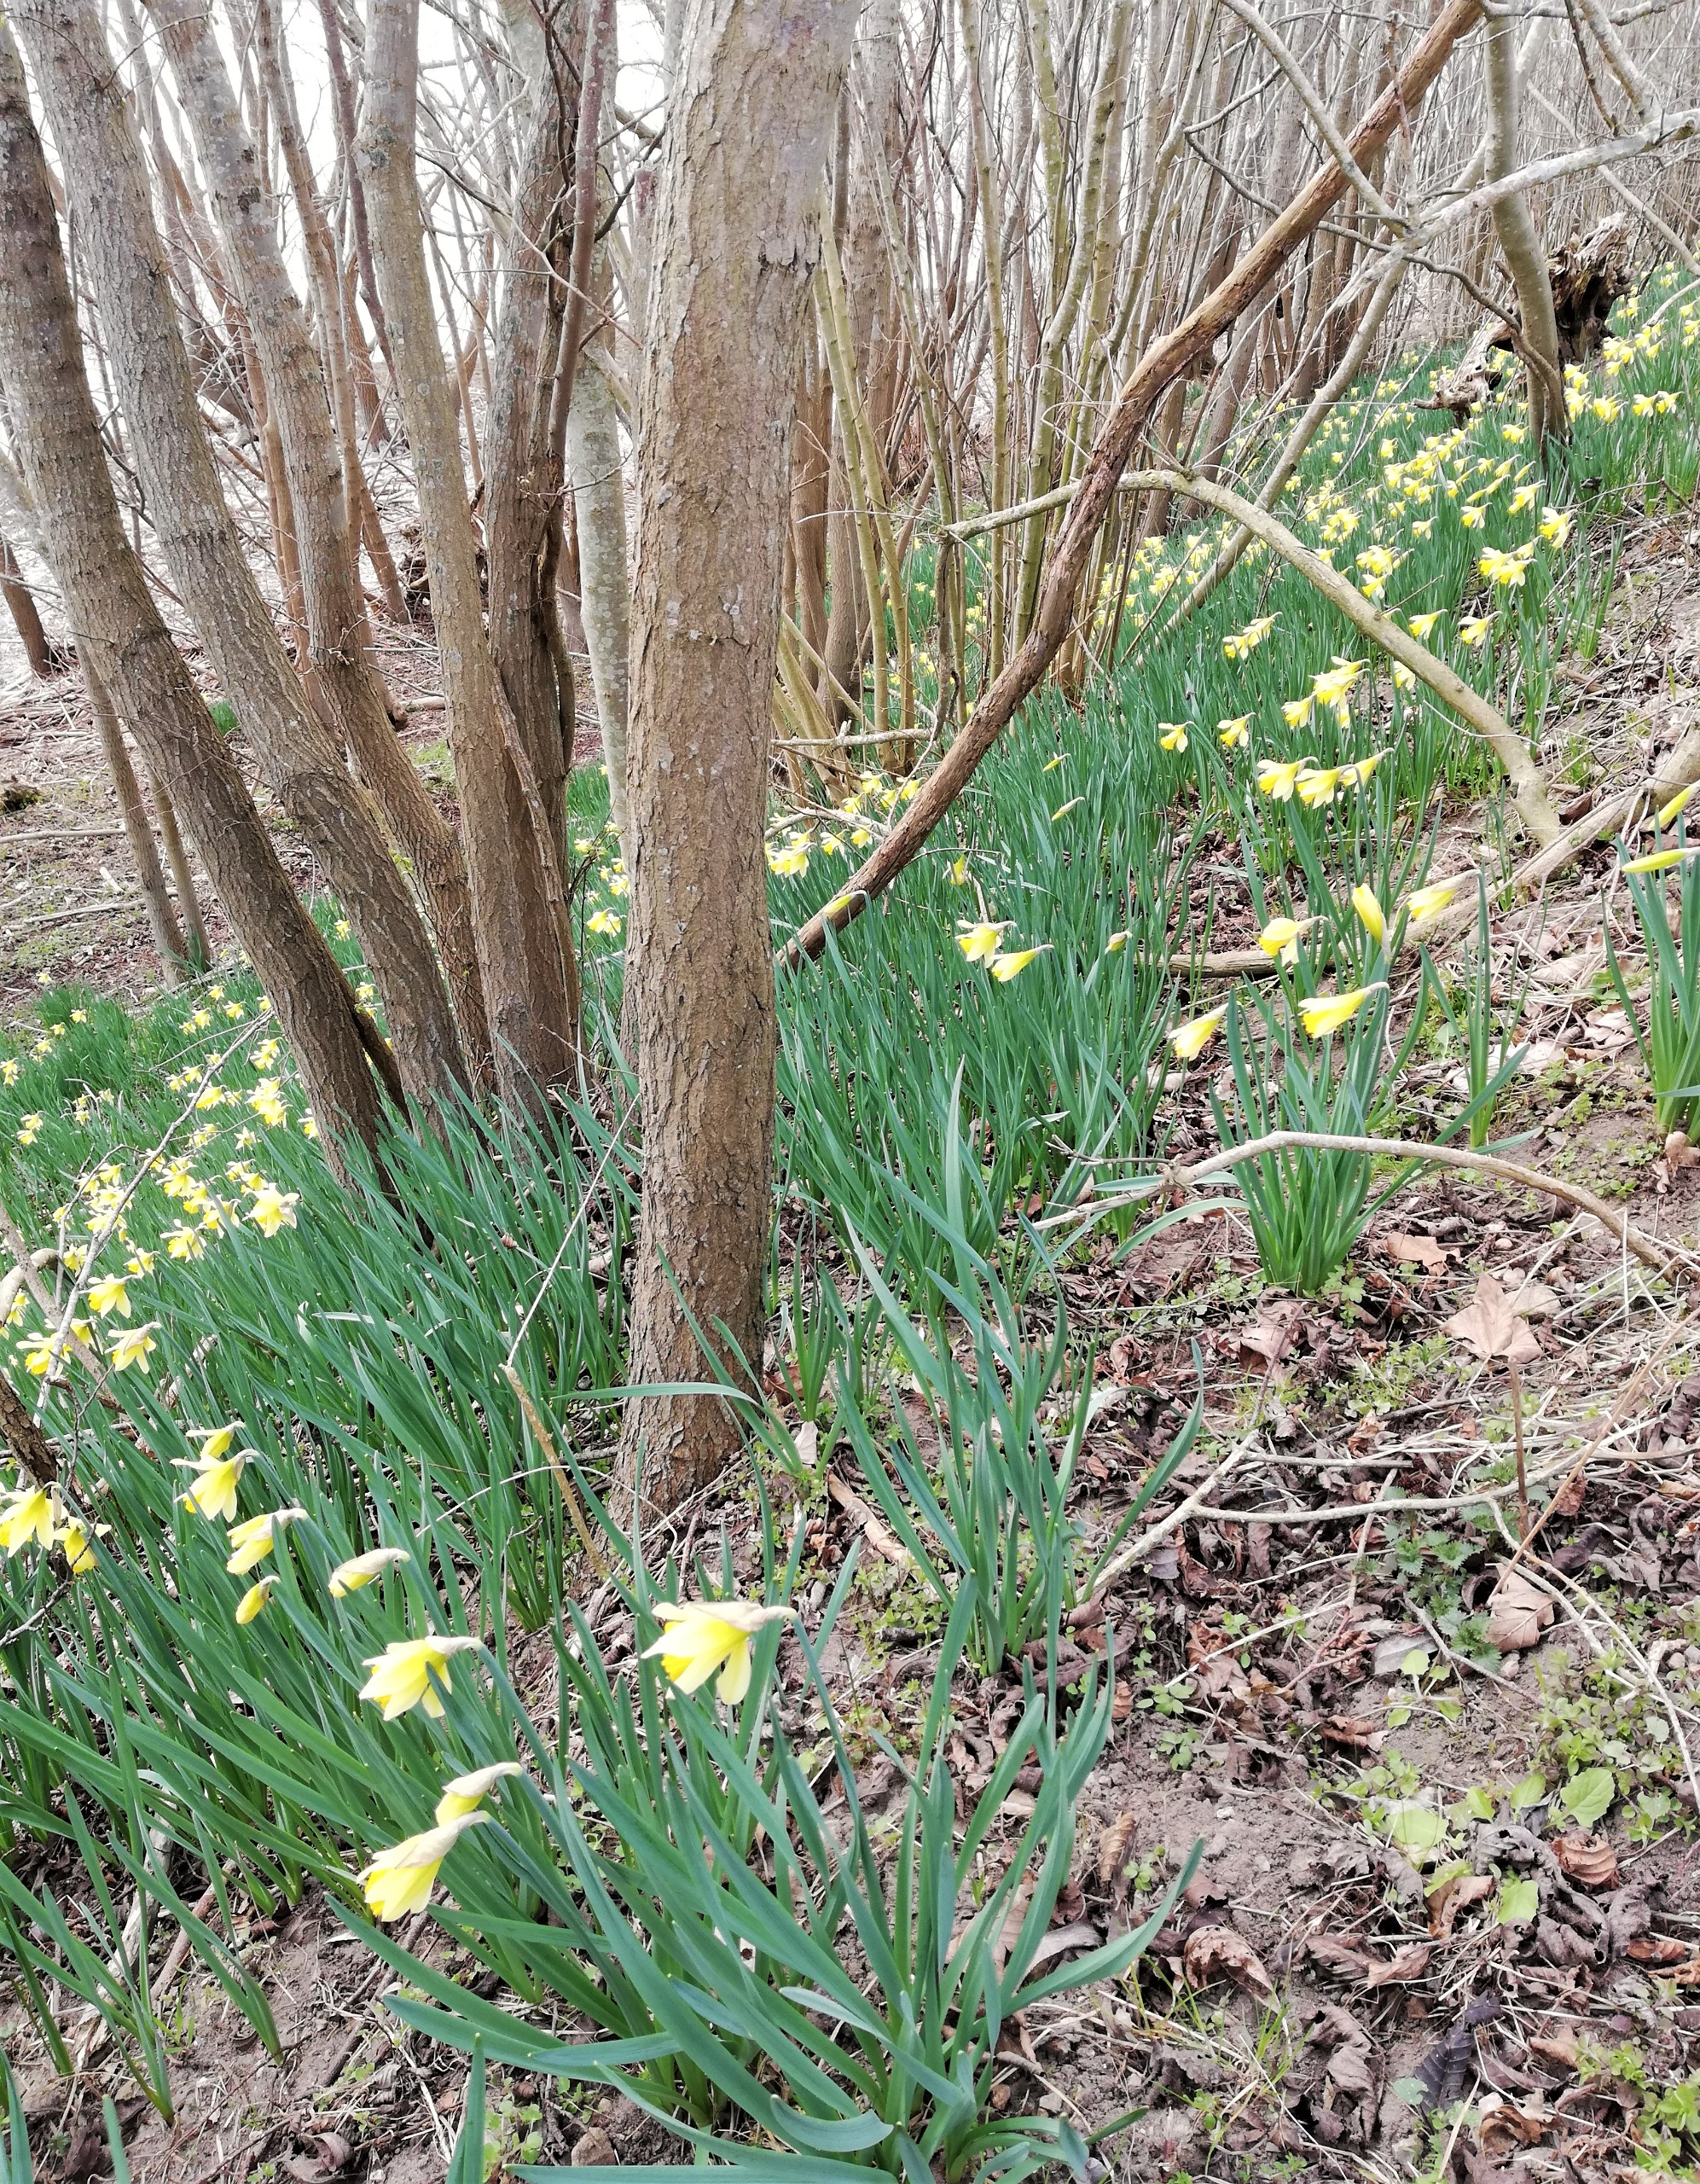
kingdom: Plantae
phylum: Tracheophyta
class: Liliopsida
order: Asparagales
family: Amaryllidaceae
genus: Narcissus
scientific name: Narcissus pseudonarcissus
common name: Påskelilje
